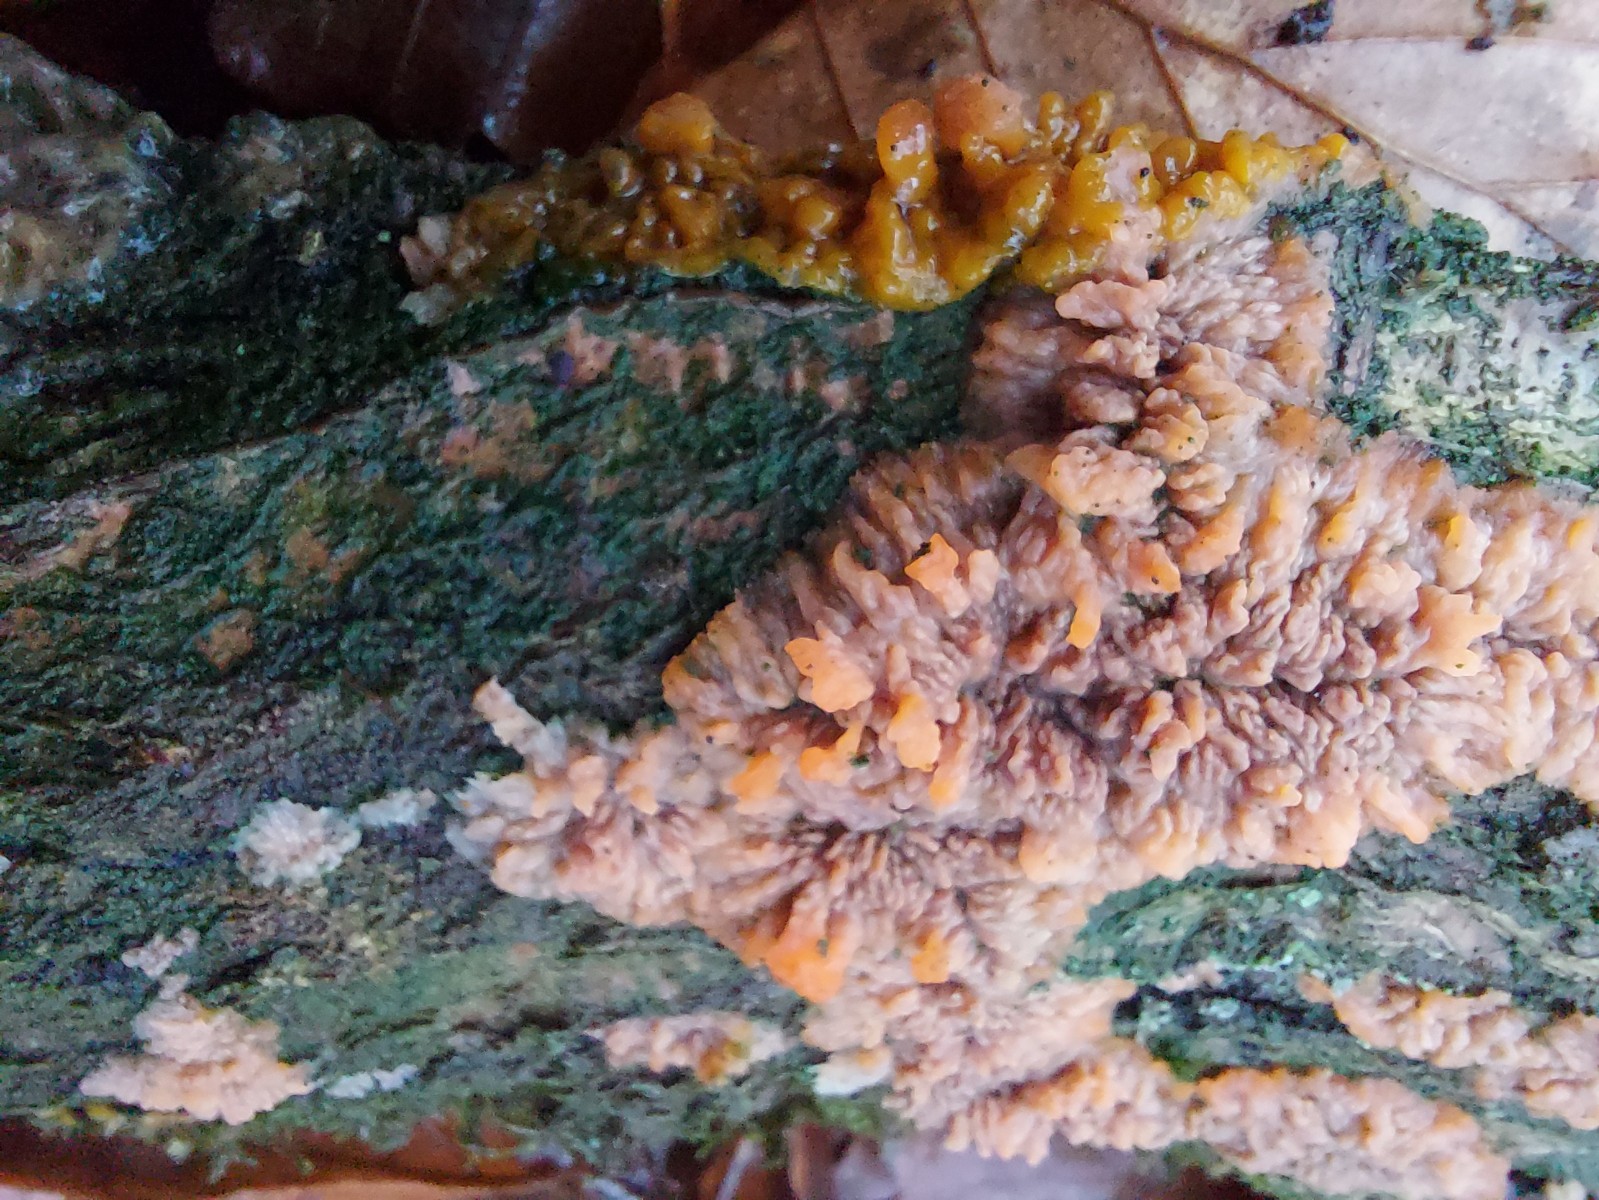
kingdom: Fungi
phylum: Basidiomycota
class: Agaricomycetes
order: Polyporales
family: Meruliaceae
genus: Phlebia
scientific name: Phlebia radiata
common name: stråle-åresvamp
